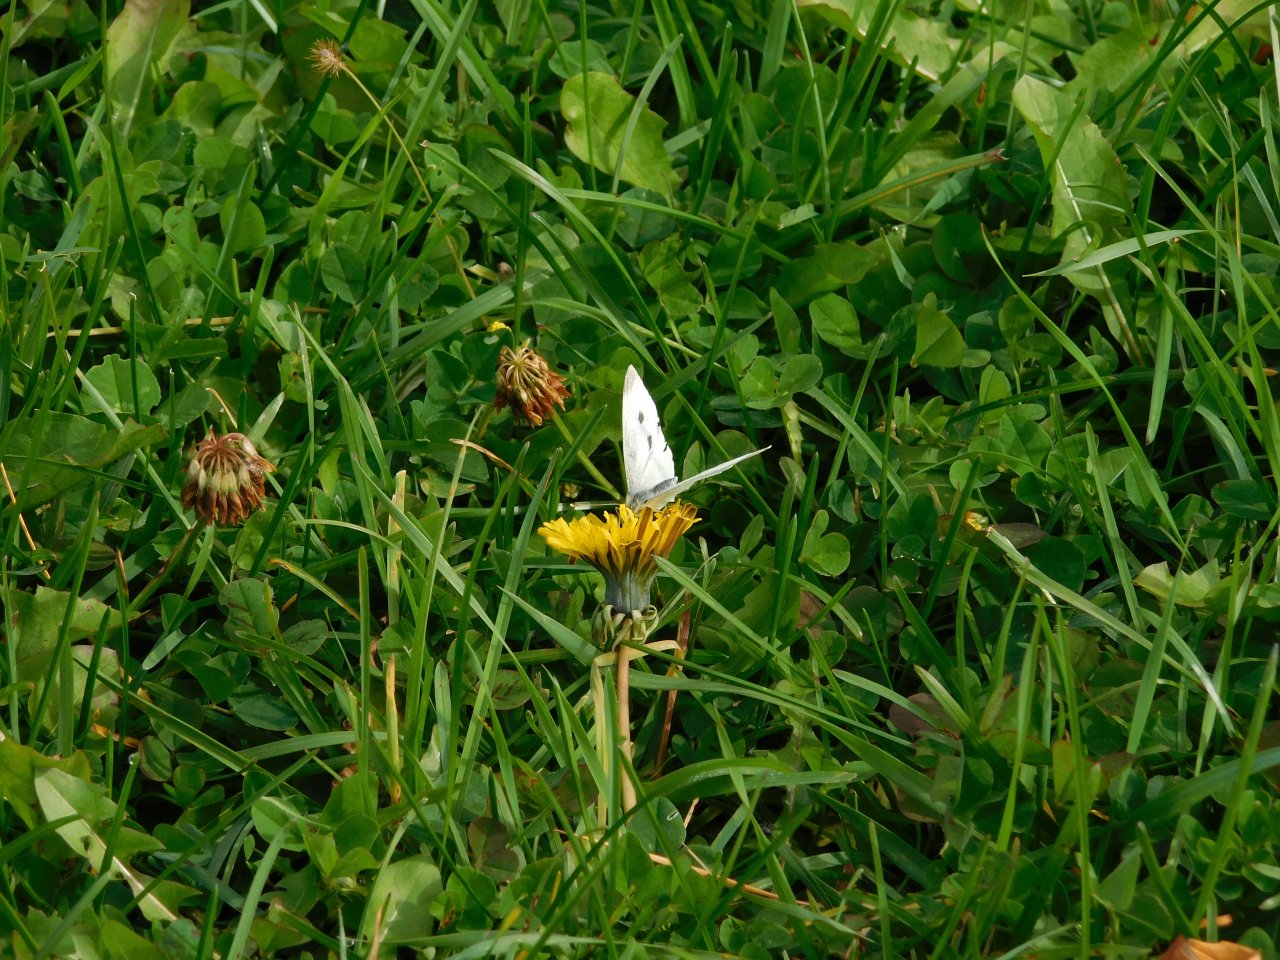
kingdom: Animalia
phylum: Arthropoda
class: Insecta
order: Lepidoptera
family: Pieridae
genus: Pieris
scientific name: Pieris rapae
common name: Cabbage White
